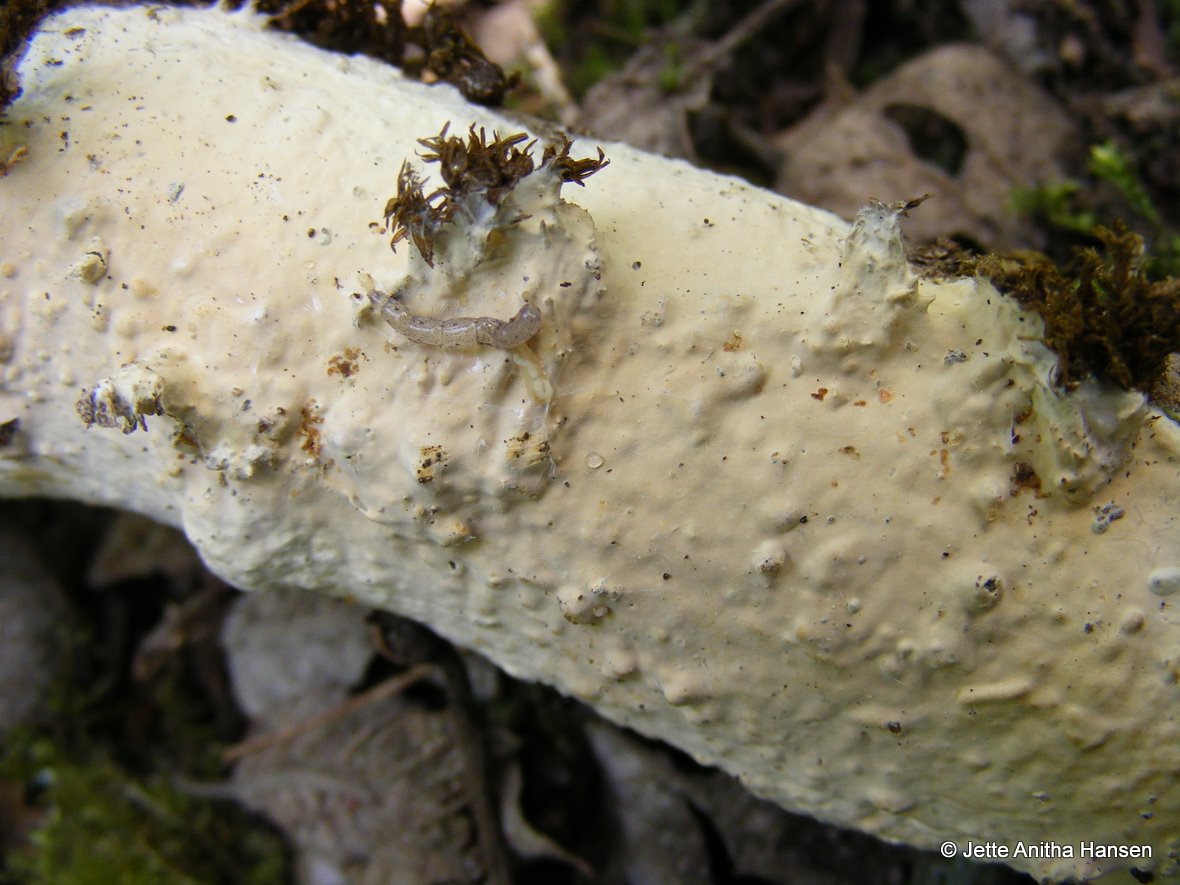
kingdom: Fungi
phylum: Basidiomycota
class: Agaricomycetes
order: Russulales
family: Peniophoraceae
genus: Scytinostroma
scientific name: Scytinostroma hemidichophyticum
